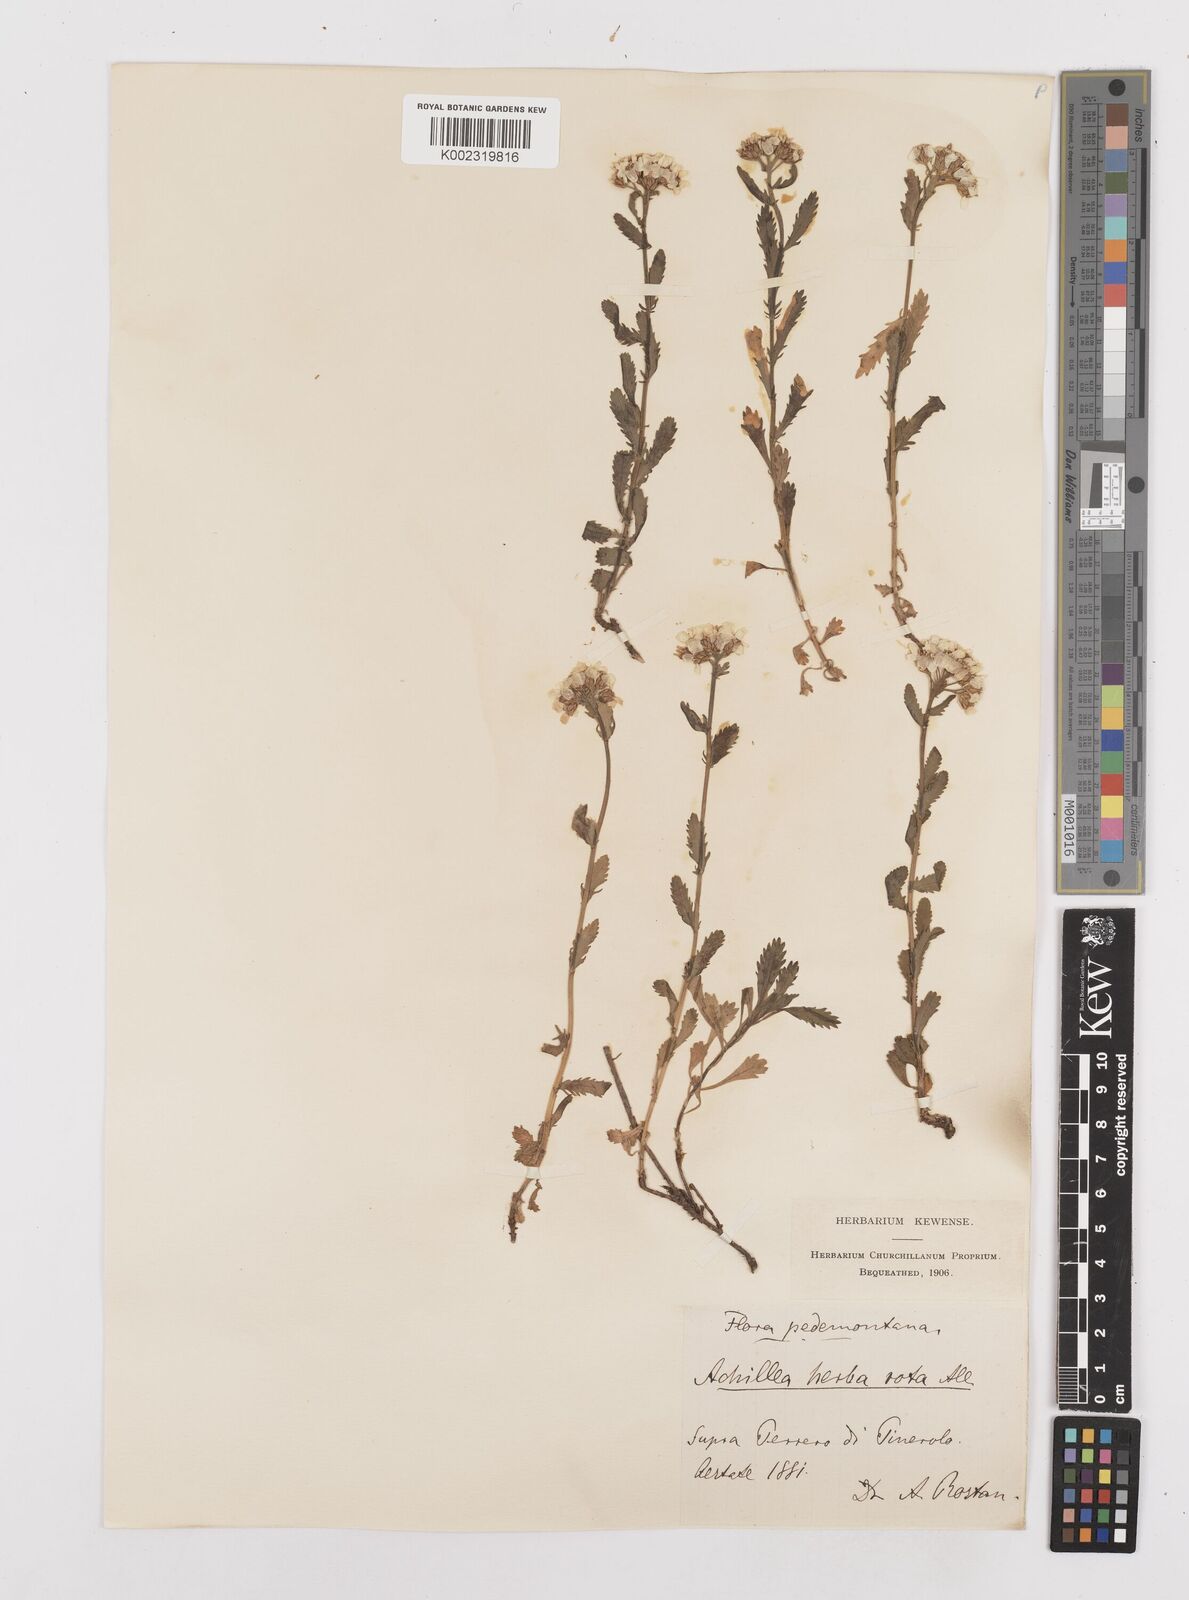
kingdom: Plantae
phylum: Tracheophyta
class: Magnoliopsida
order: Asterales
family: Asteraceae
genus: Achillea
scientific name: Achillea erba-rotta
